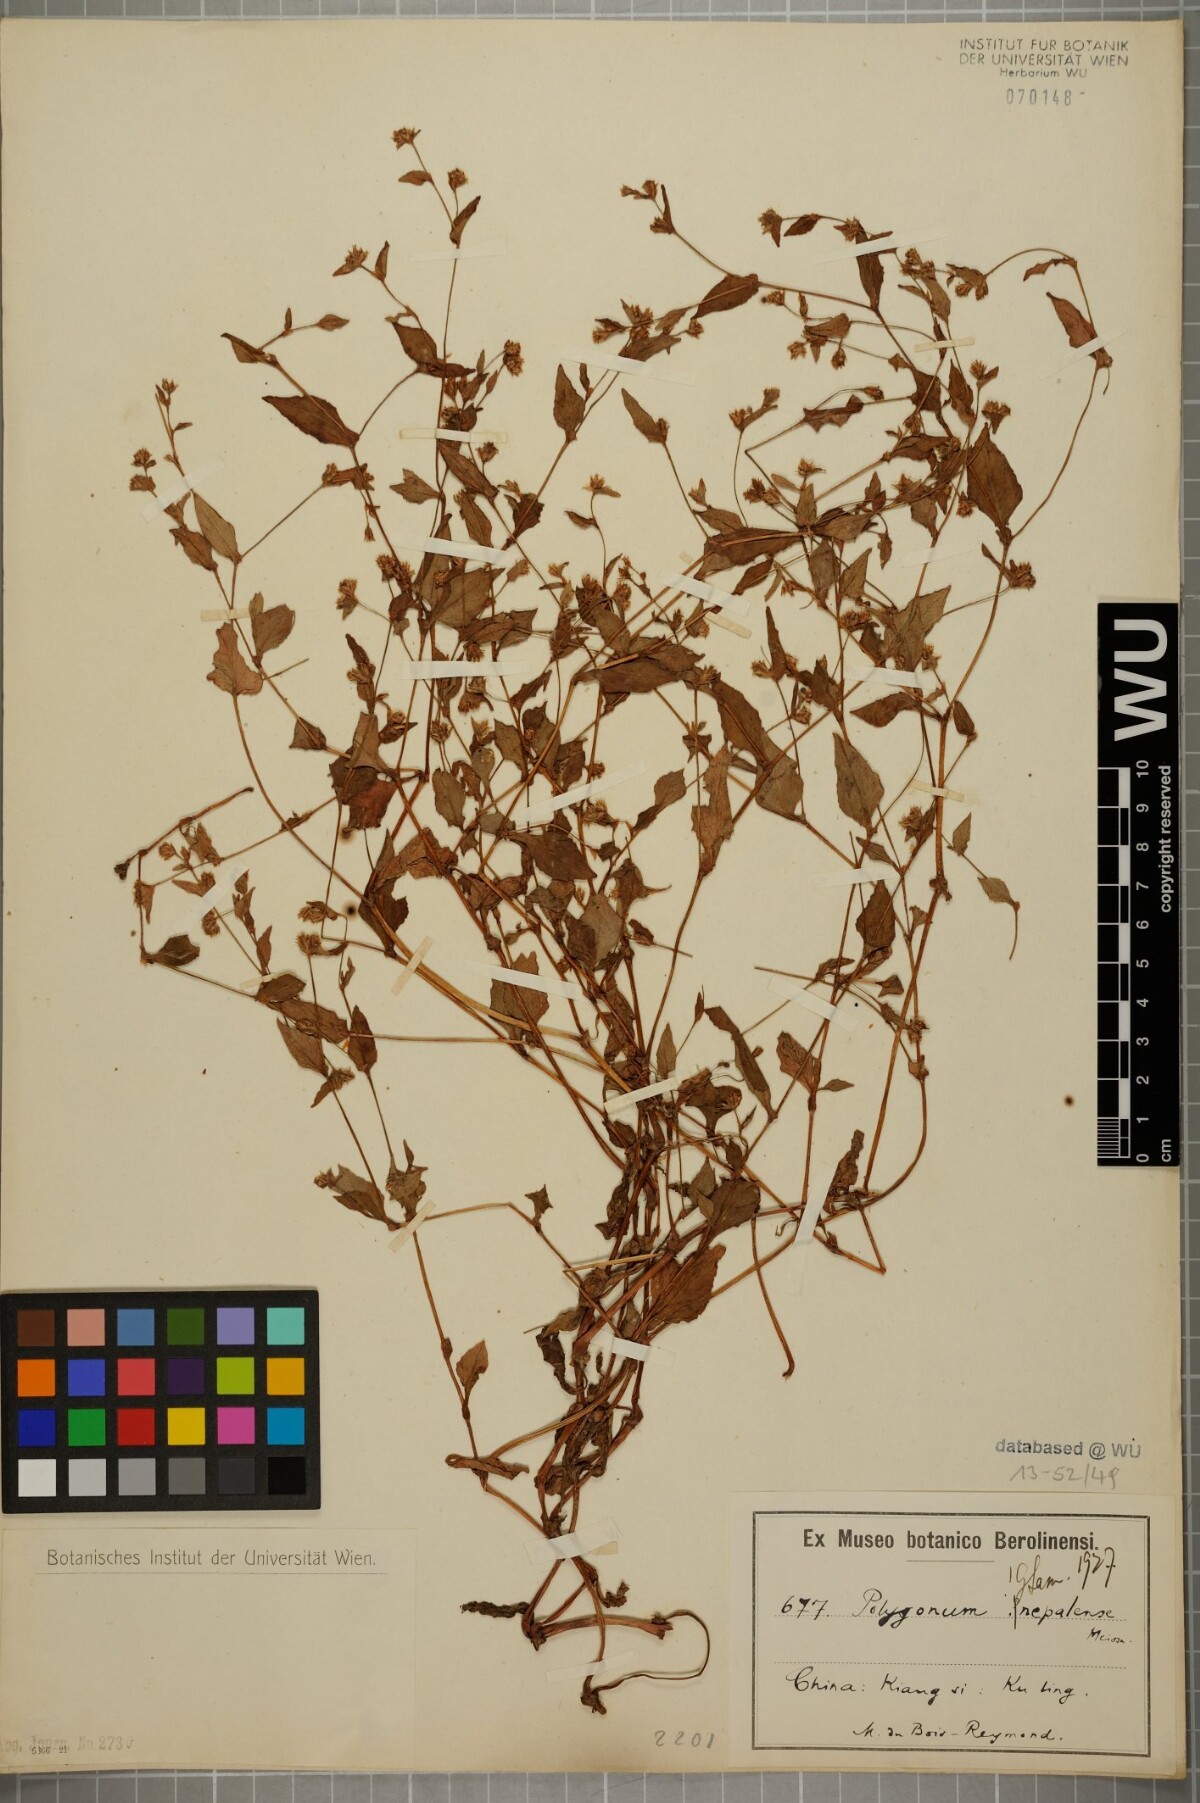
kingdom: Plantae
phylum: Tracheophyta
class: Magnoliopsida
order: Caryophyllales
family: Polygonaceae
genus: Persicaria
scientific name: Persicaria nepalensis
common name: Nepal persicaria
